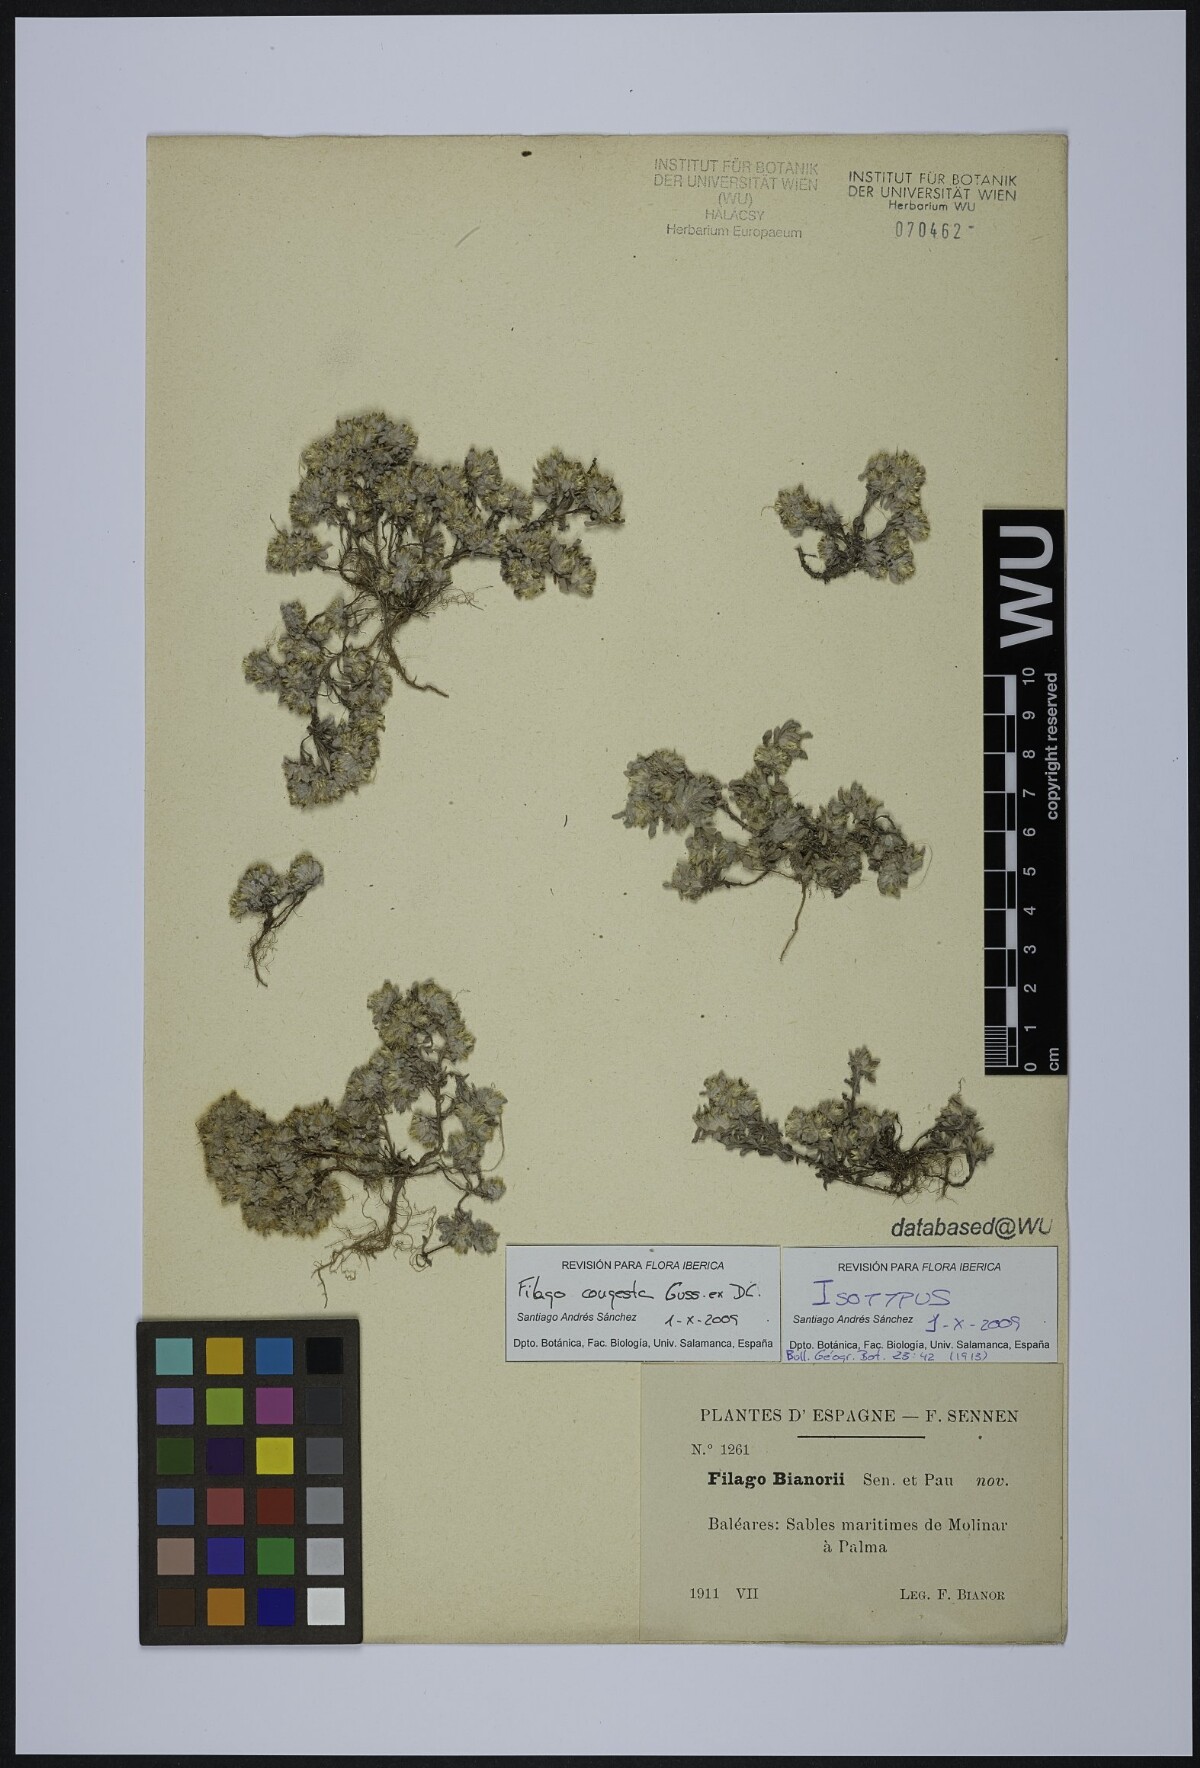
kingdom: Plantae
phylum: Tracheophyta
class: Magnoliopsida
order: Asterales
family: Asteraceae
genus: Filago
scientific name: Filago congesta
